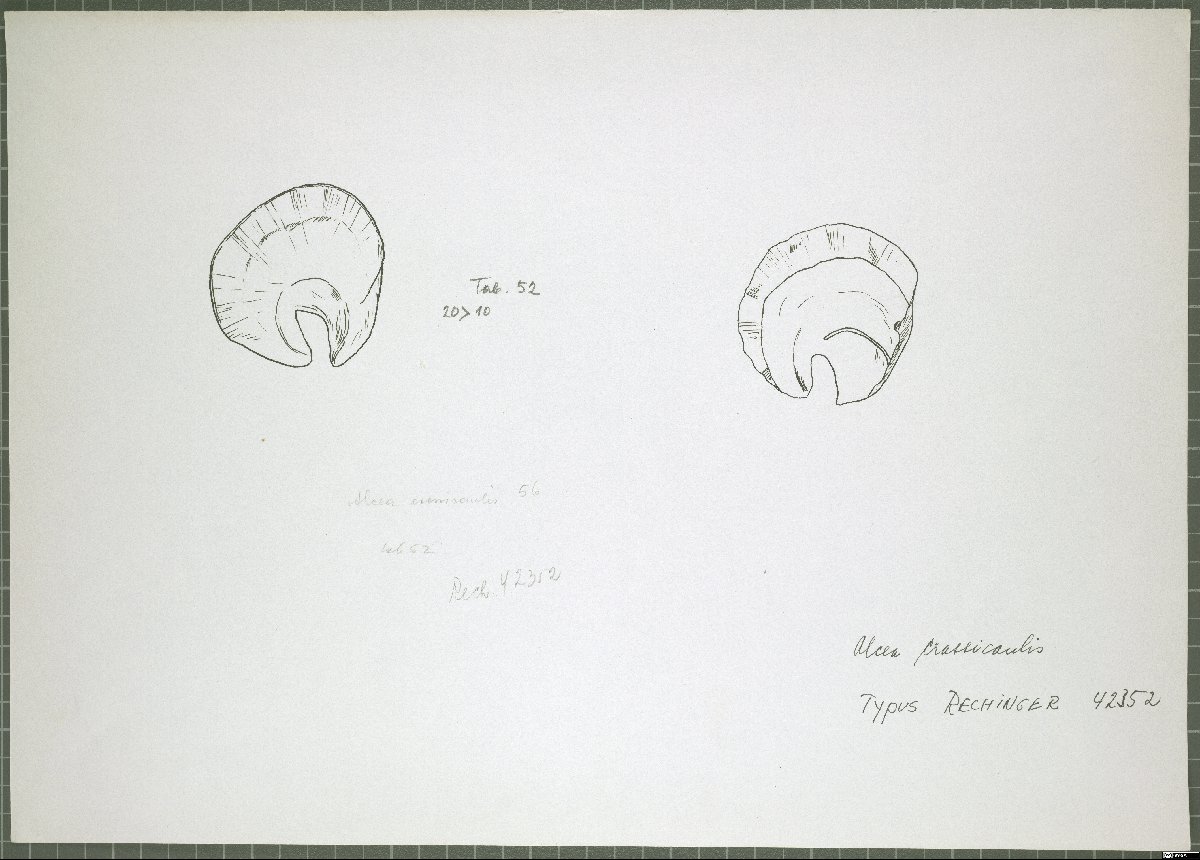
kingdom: Plantae
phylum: Tracheophyta
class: Magnoliopsida
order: Malvales
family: Malvaceae
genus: Alcea
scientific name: Alcea arbelensis
